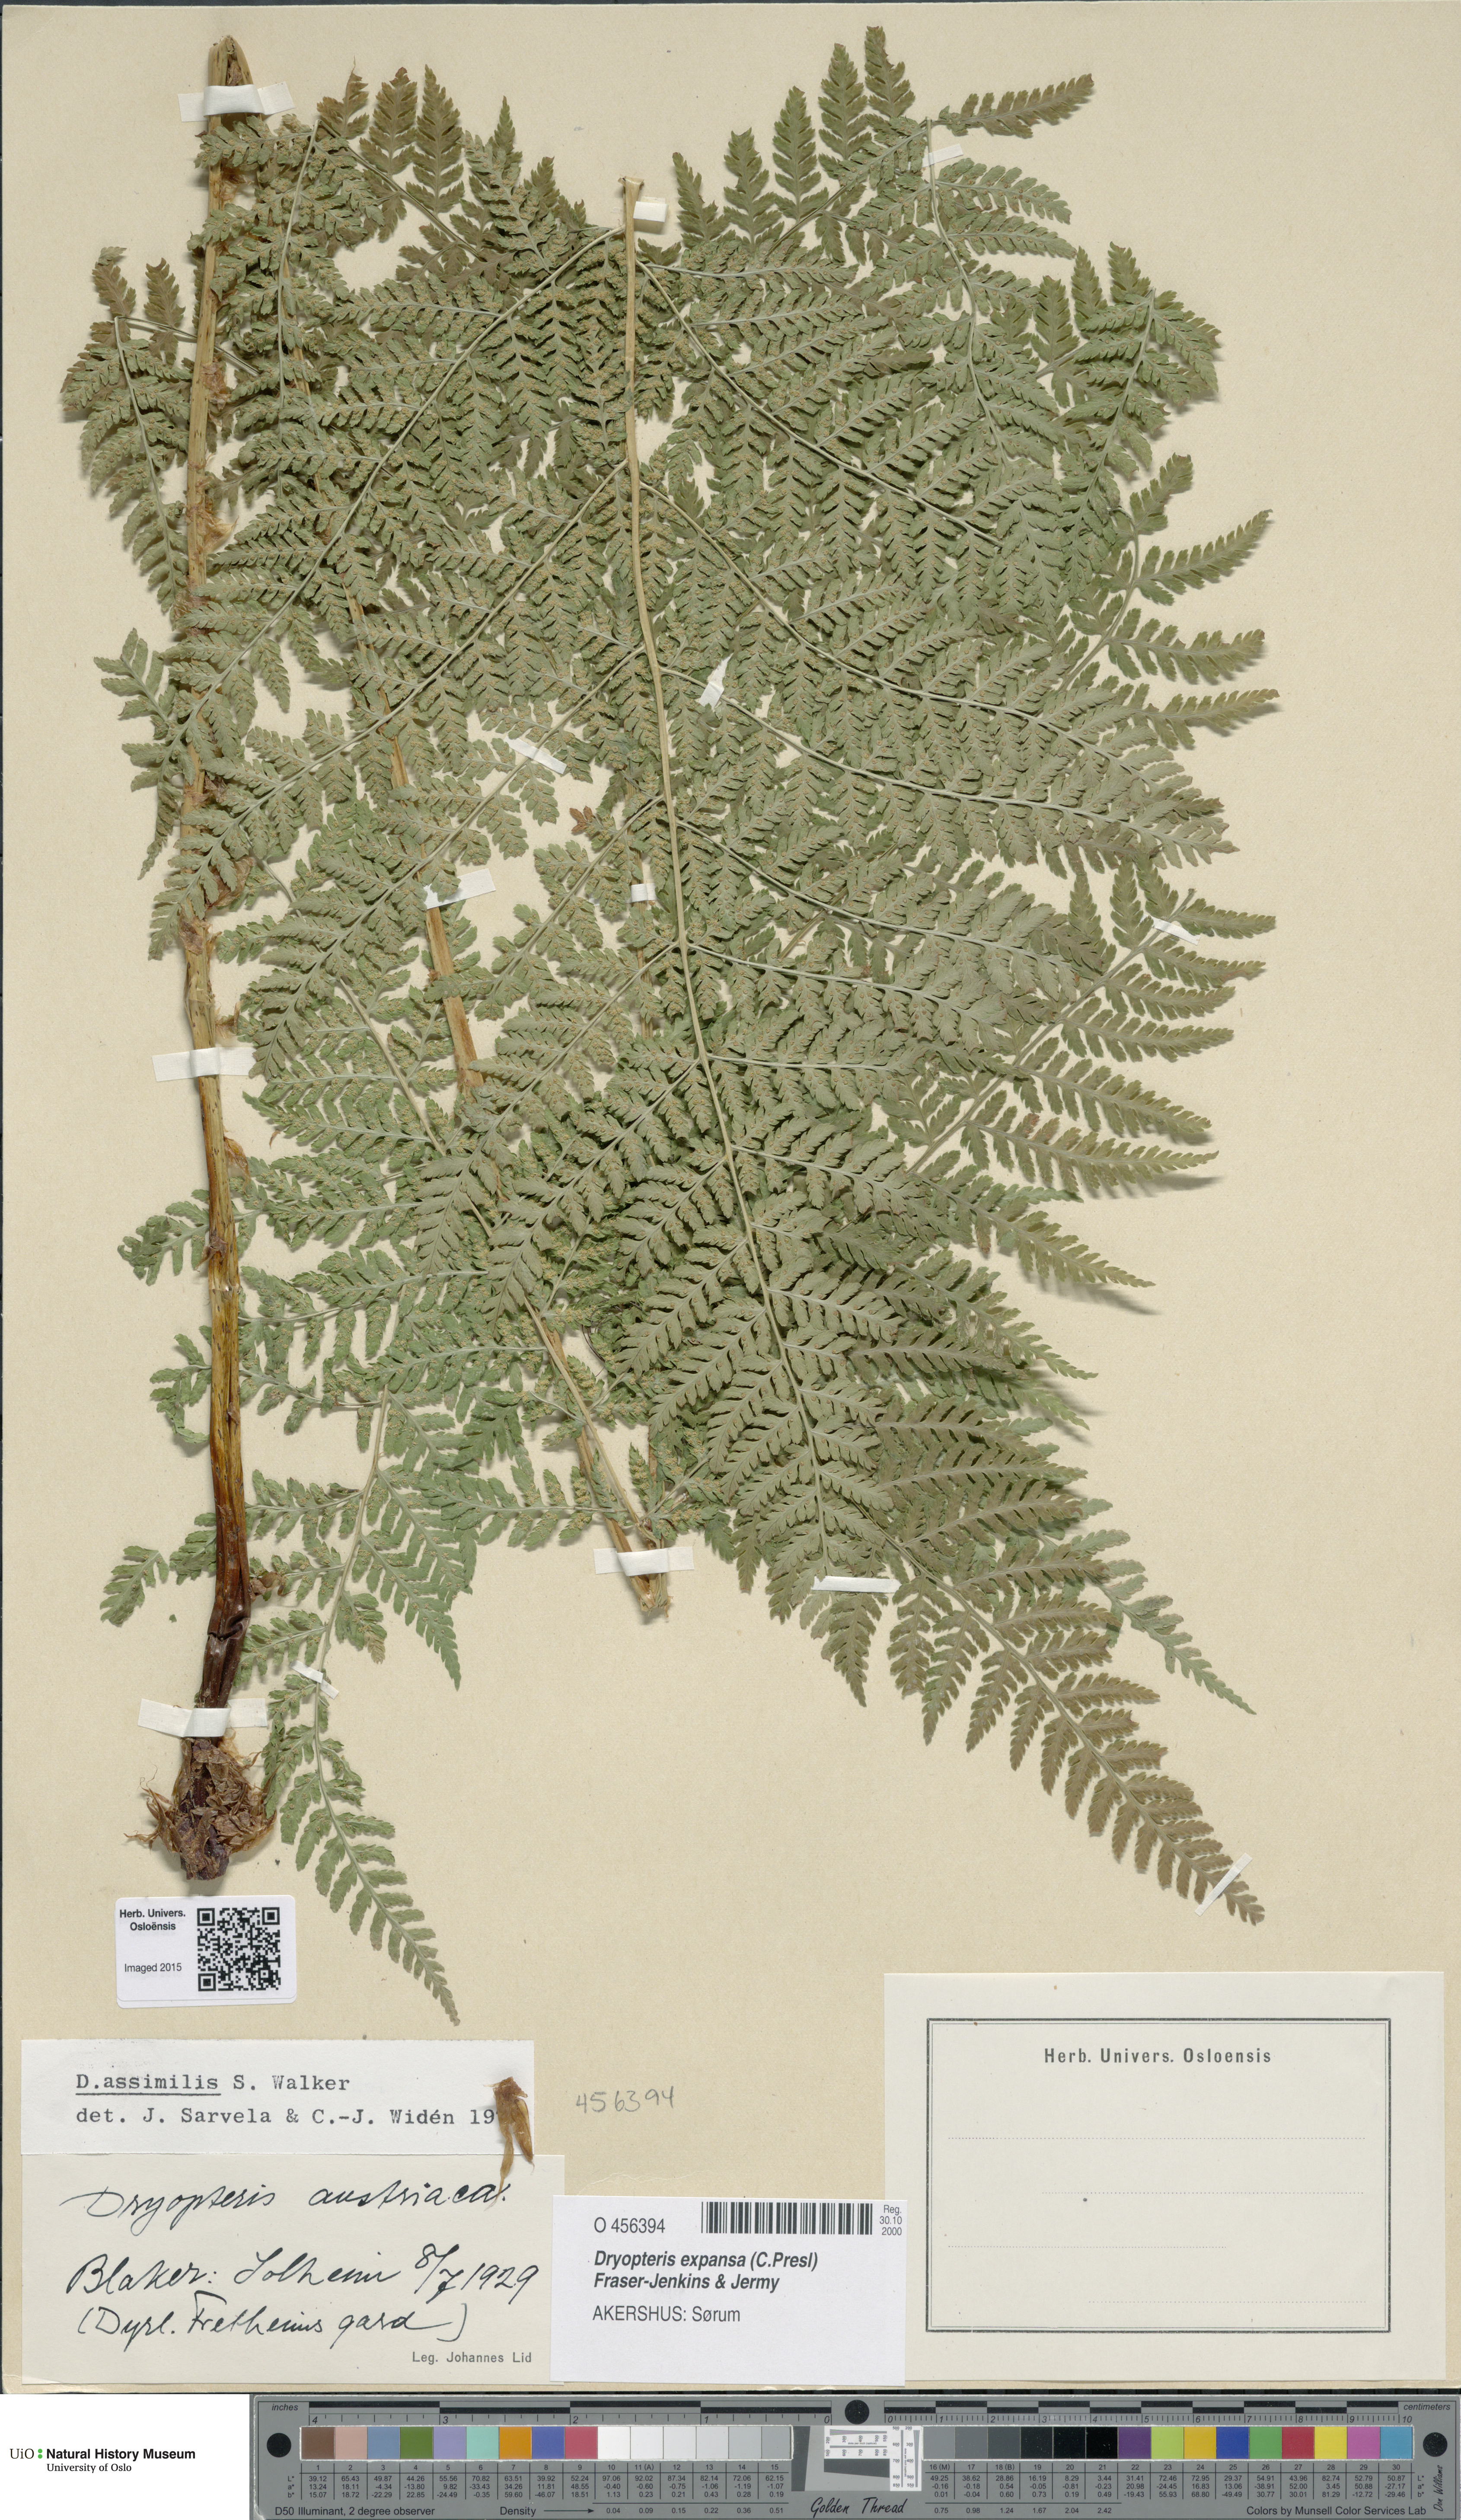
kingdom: Plantae
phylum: Tracheophyta
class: Polypodiopsida
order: Polypodiales
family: Dryopteridaceae
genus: Dryopteris
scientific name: Dryopteris expansa
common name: Northern buckler fern
